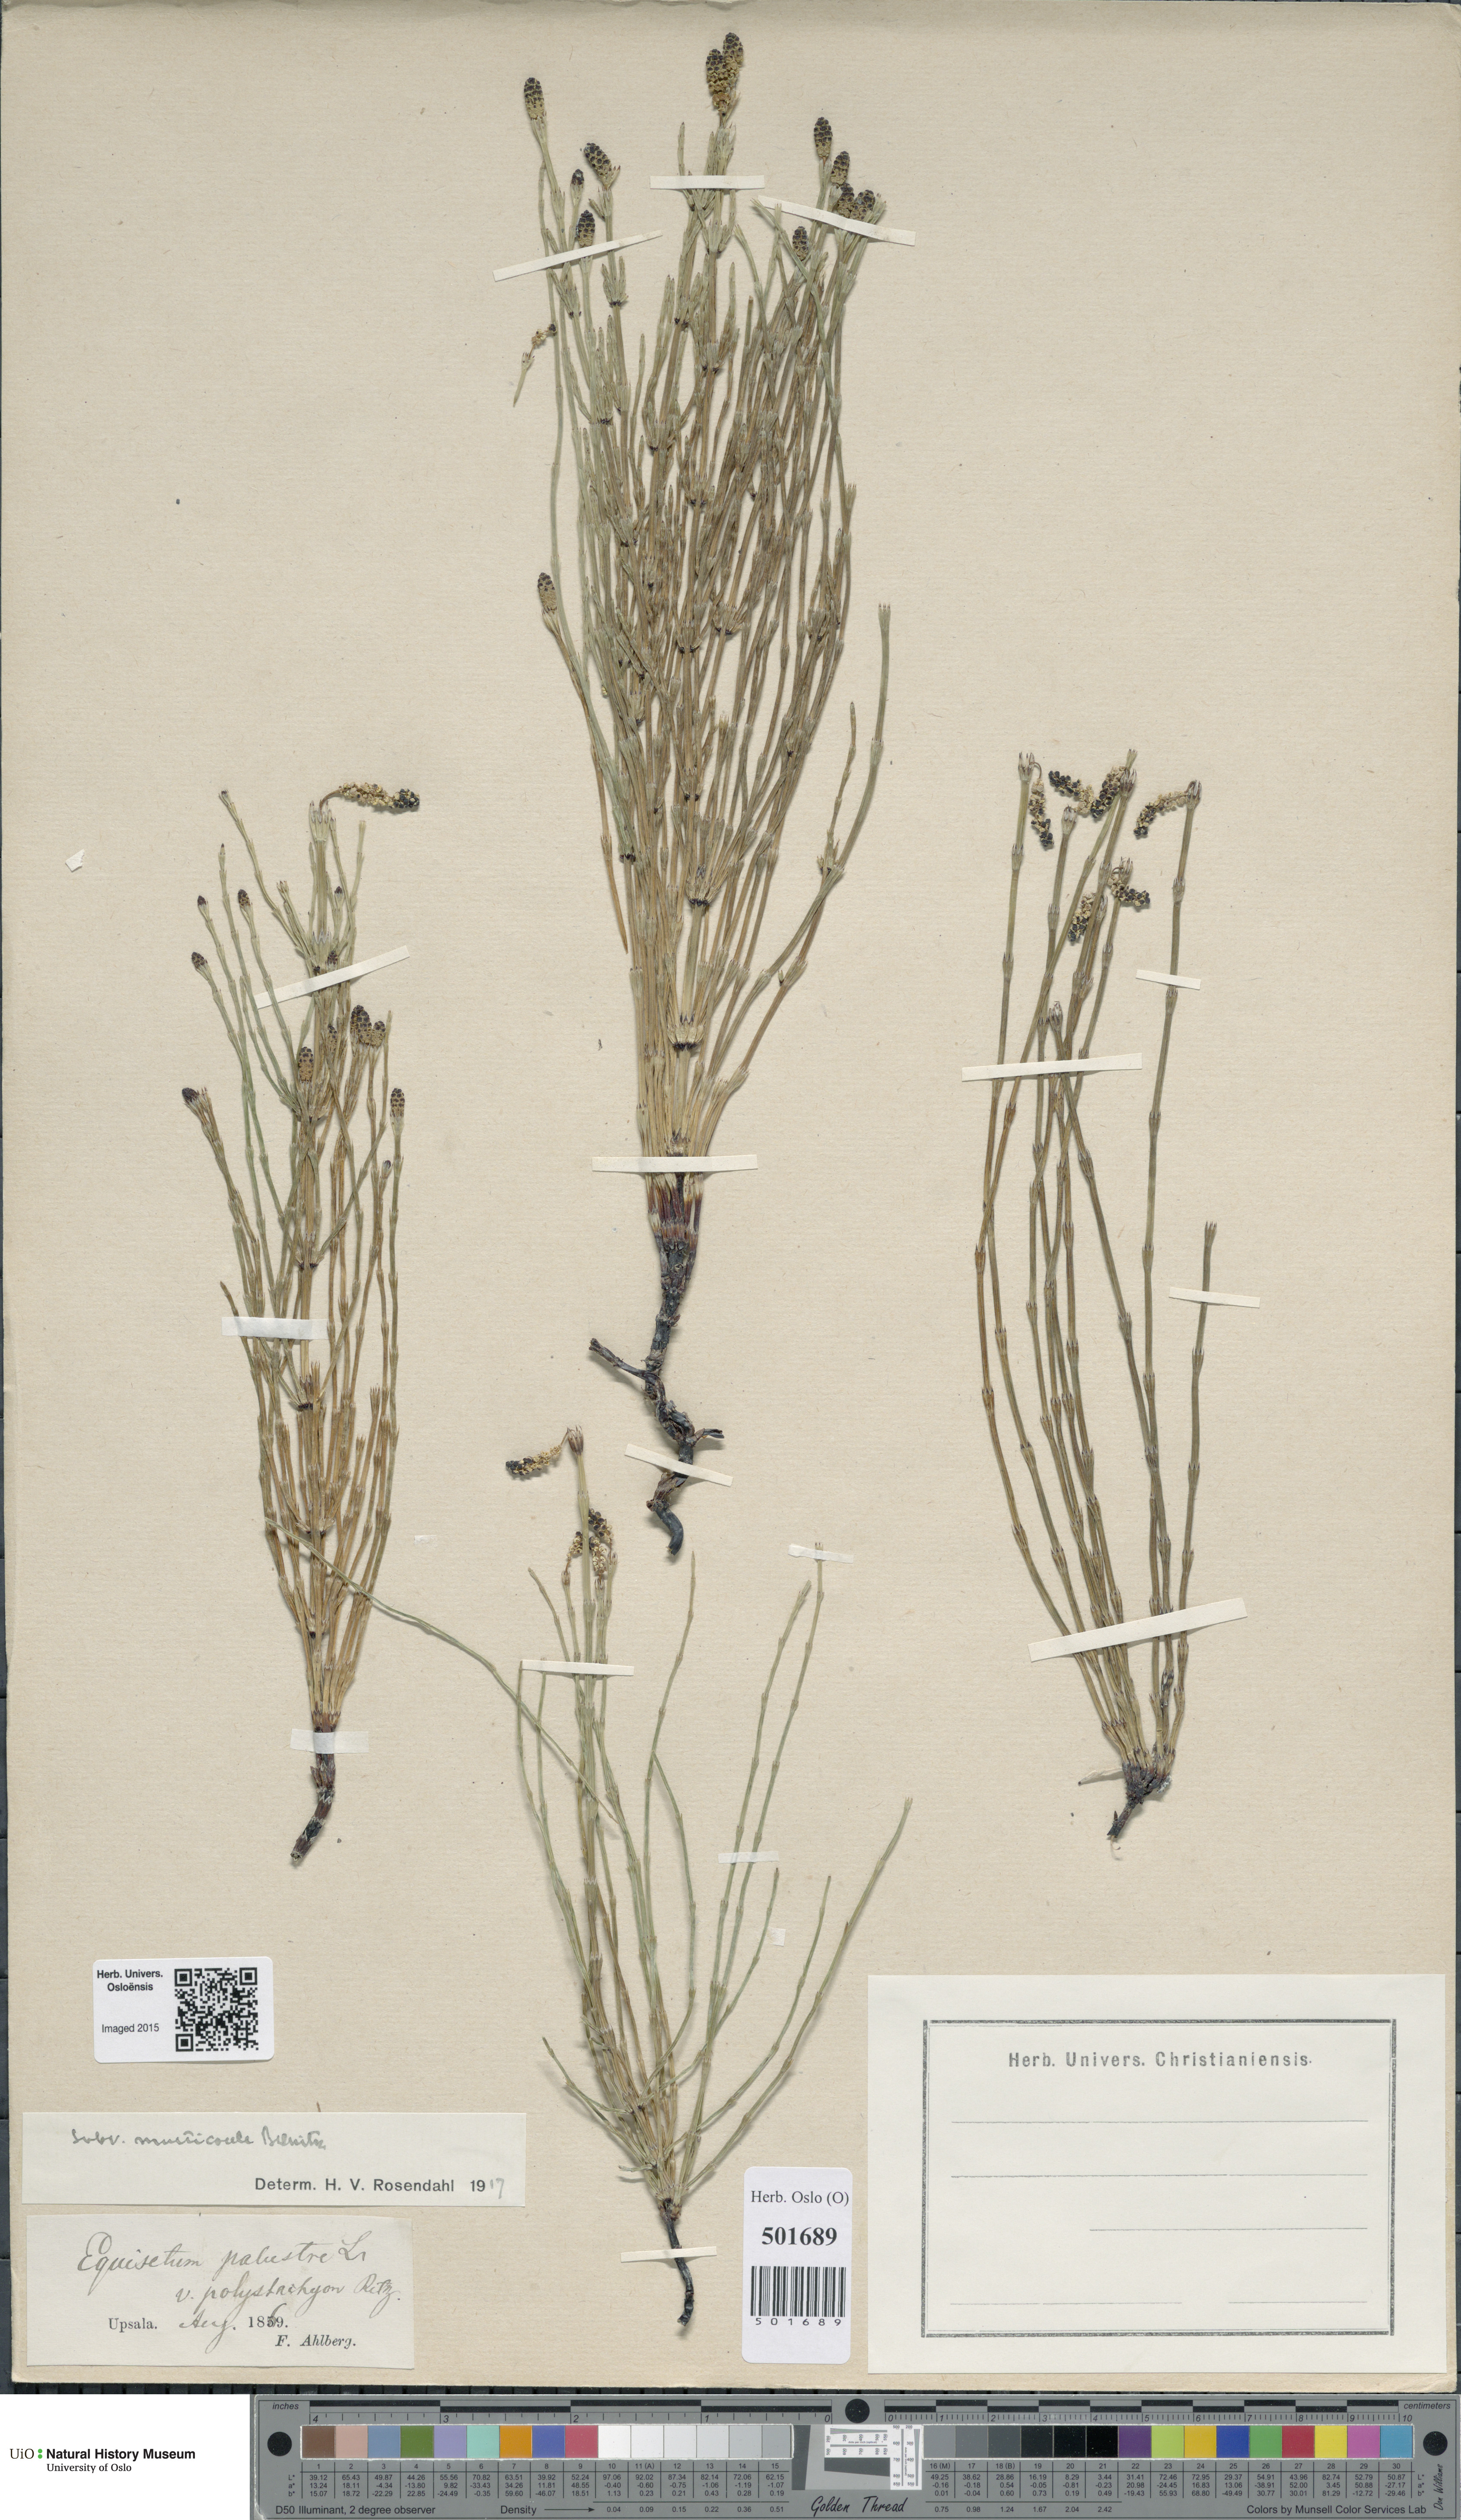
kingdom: Plantae
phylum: Tracheophyta
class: Polypodiopsida
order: Equisetales
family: Equisetaceae
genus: Equisetum
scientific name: Equisetum palustre
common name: Marsh horsetail
